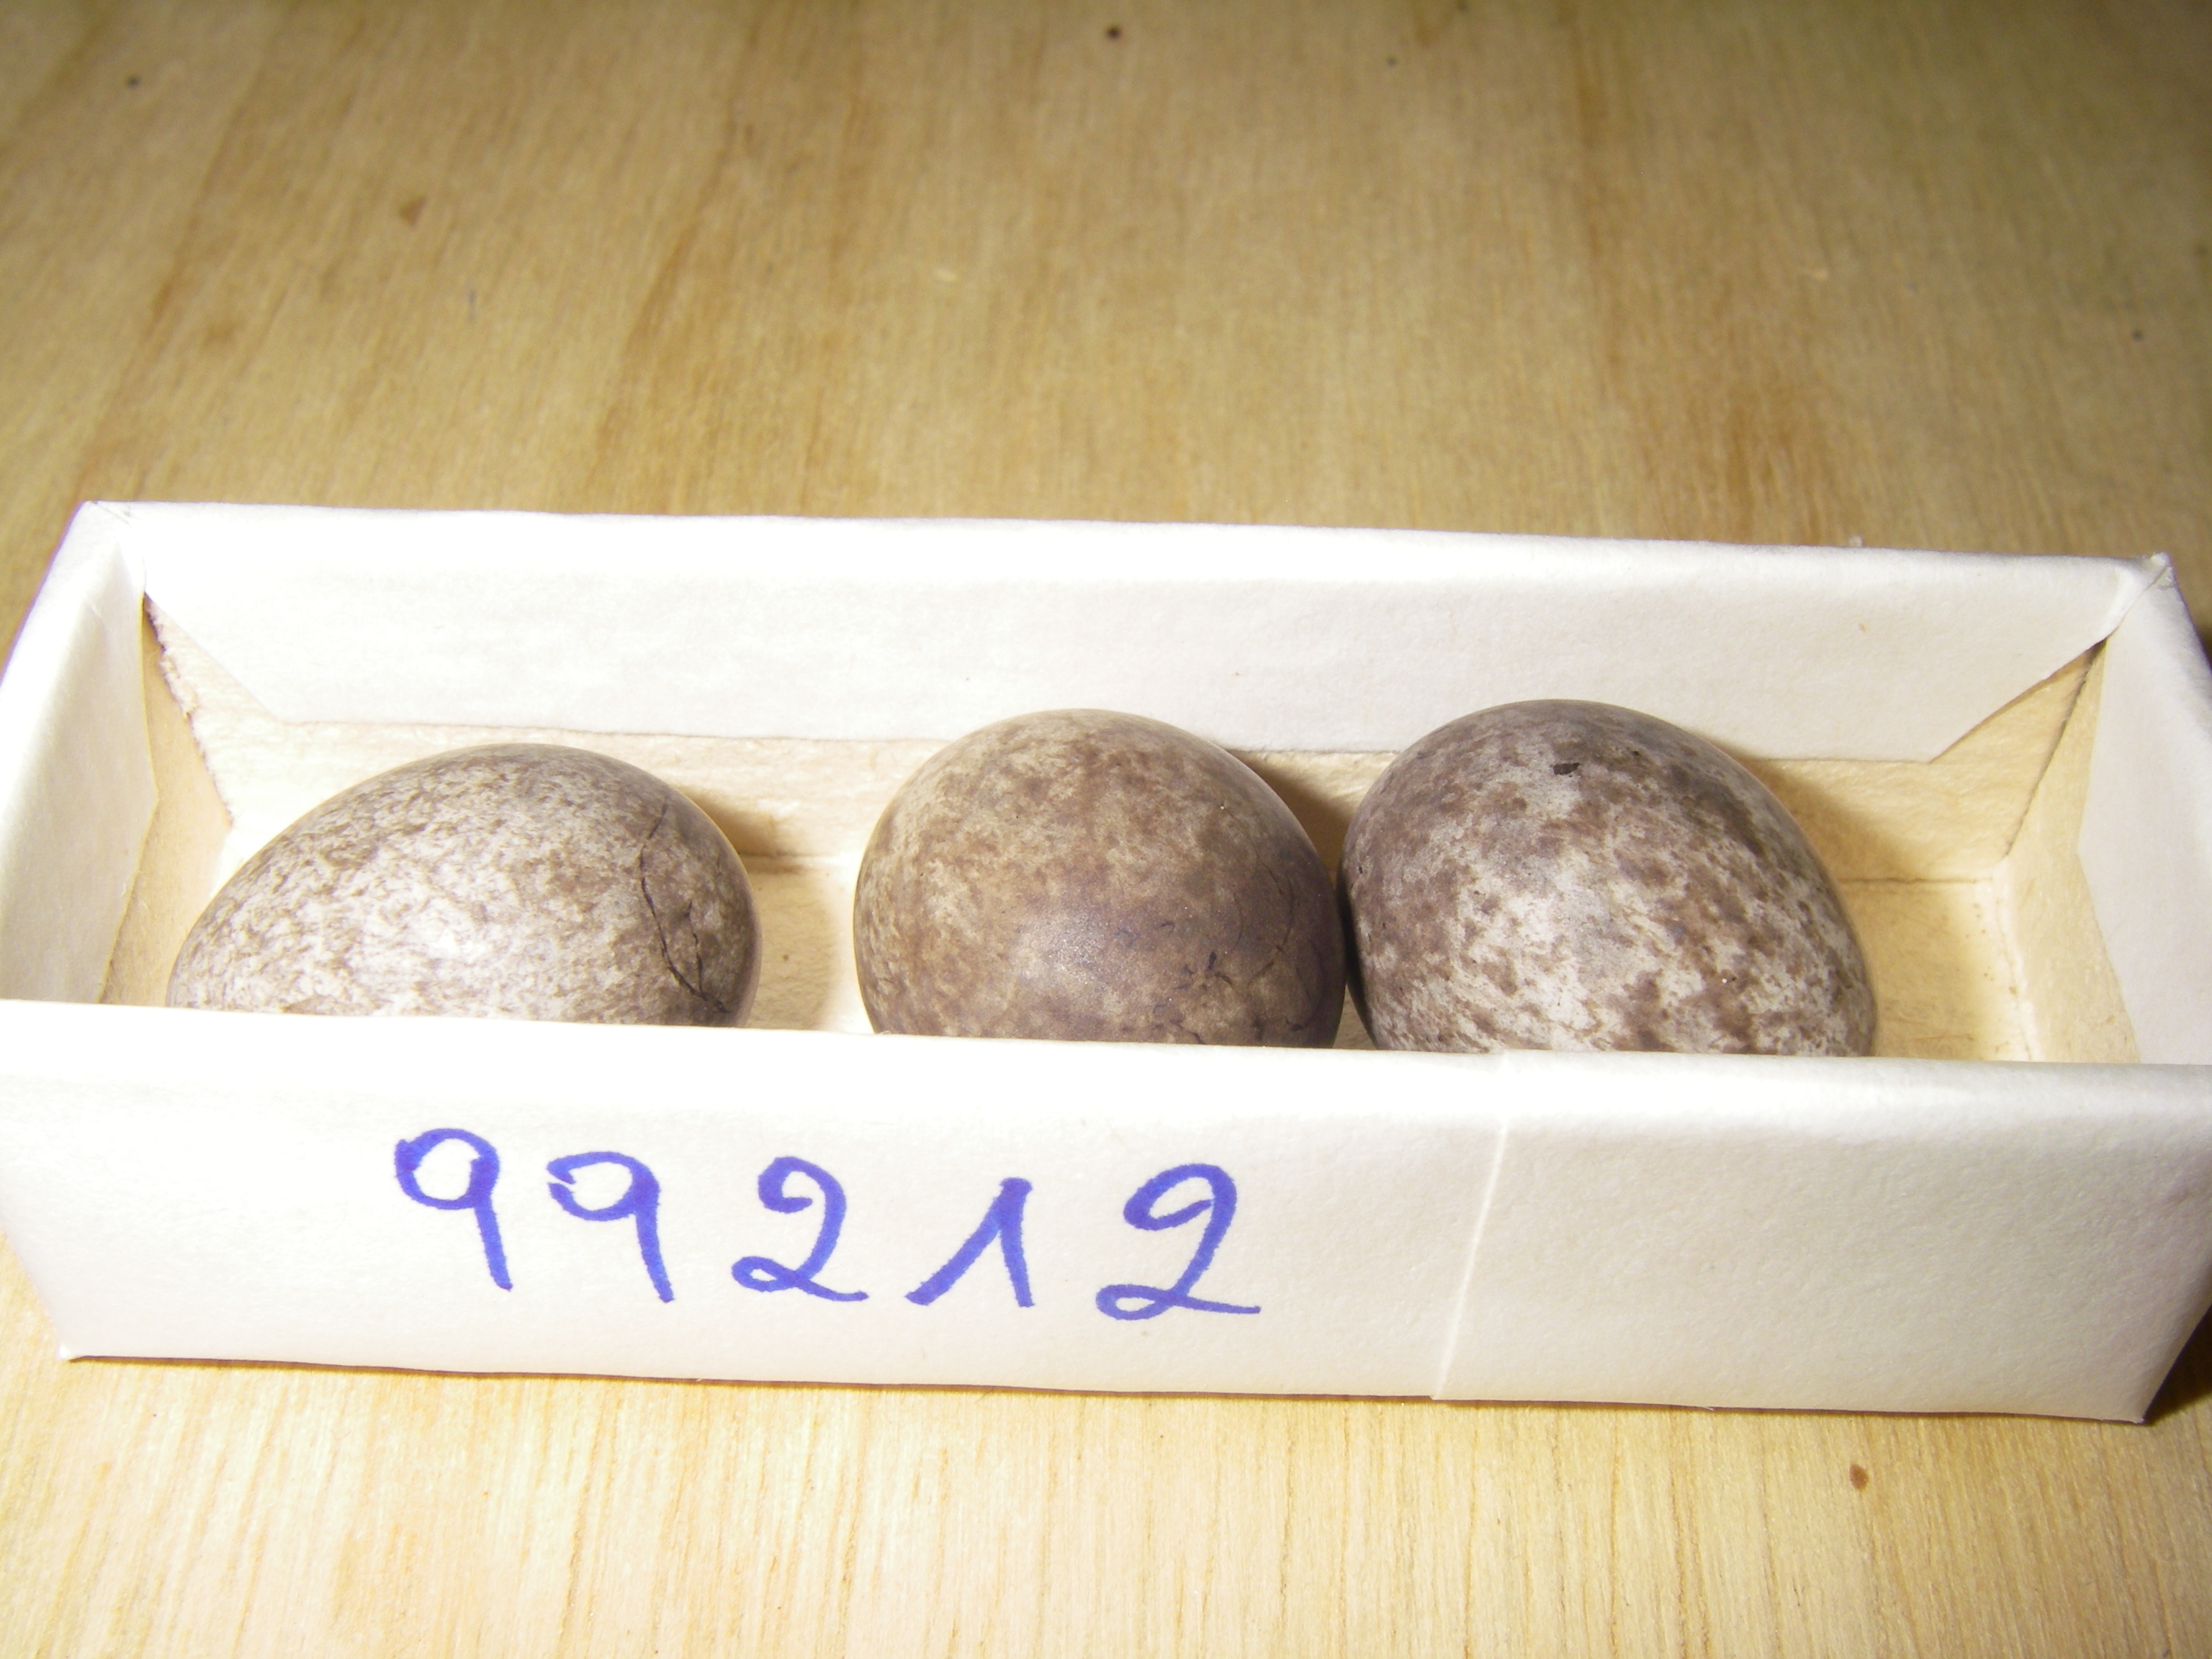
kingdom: Animalia
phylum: Chordata
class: Aves
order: Passeriformes
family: Motacillidae
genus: Anthus
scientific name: Anthus pratensis
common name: Meadow pipit
